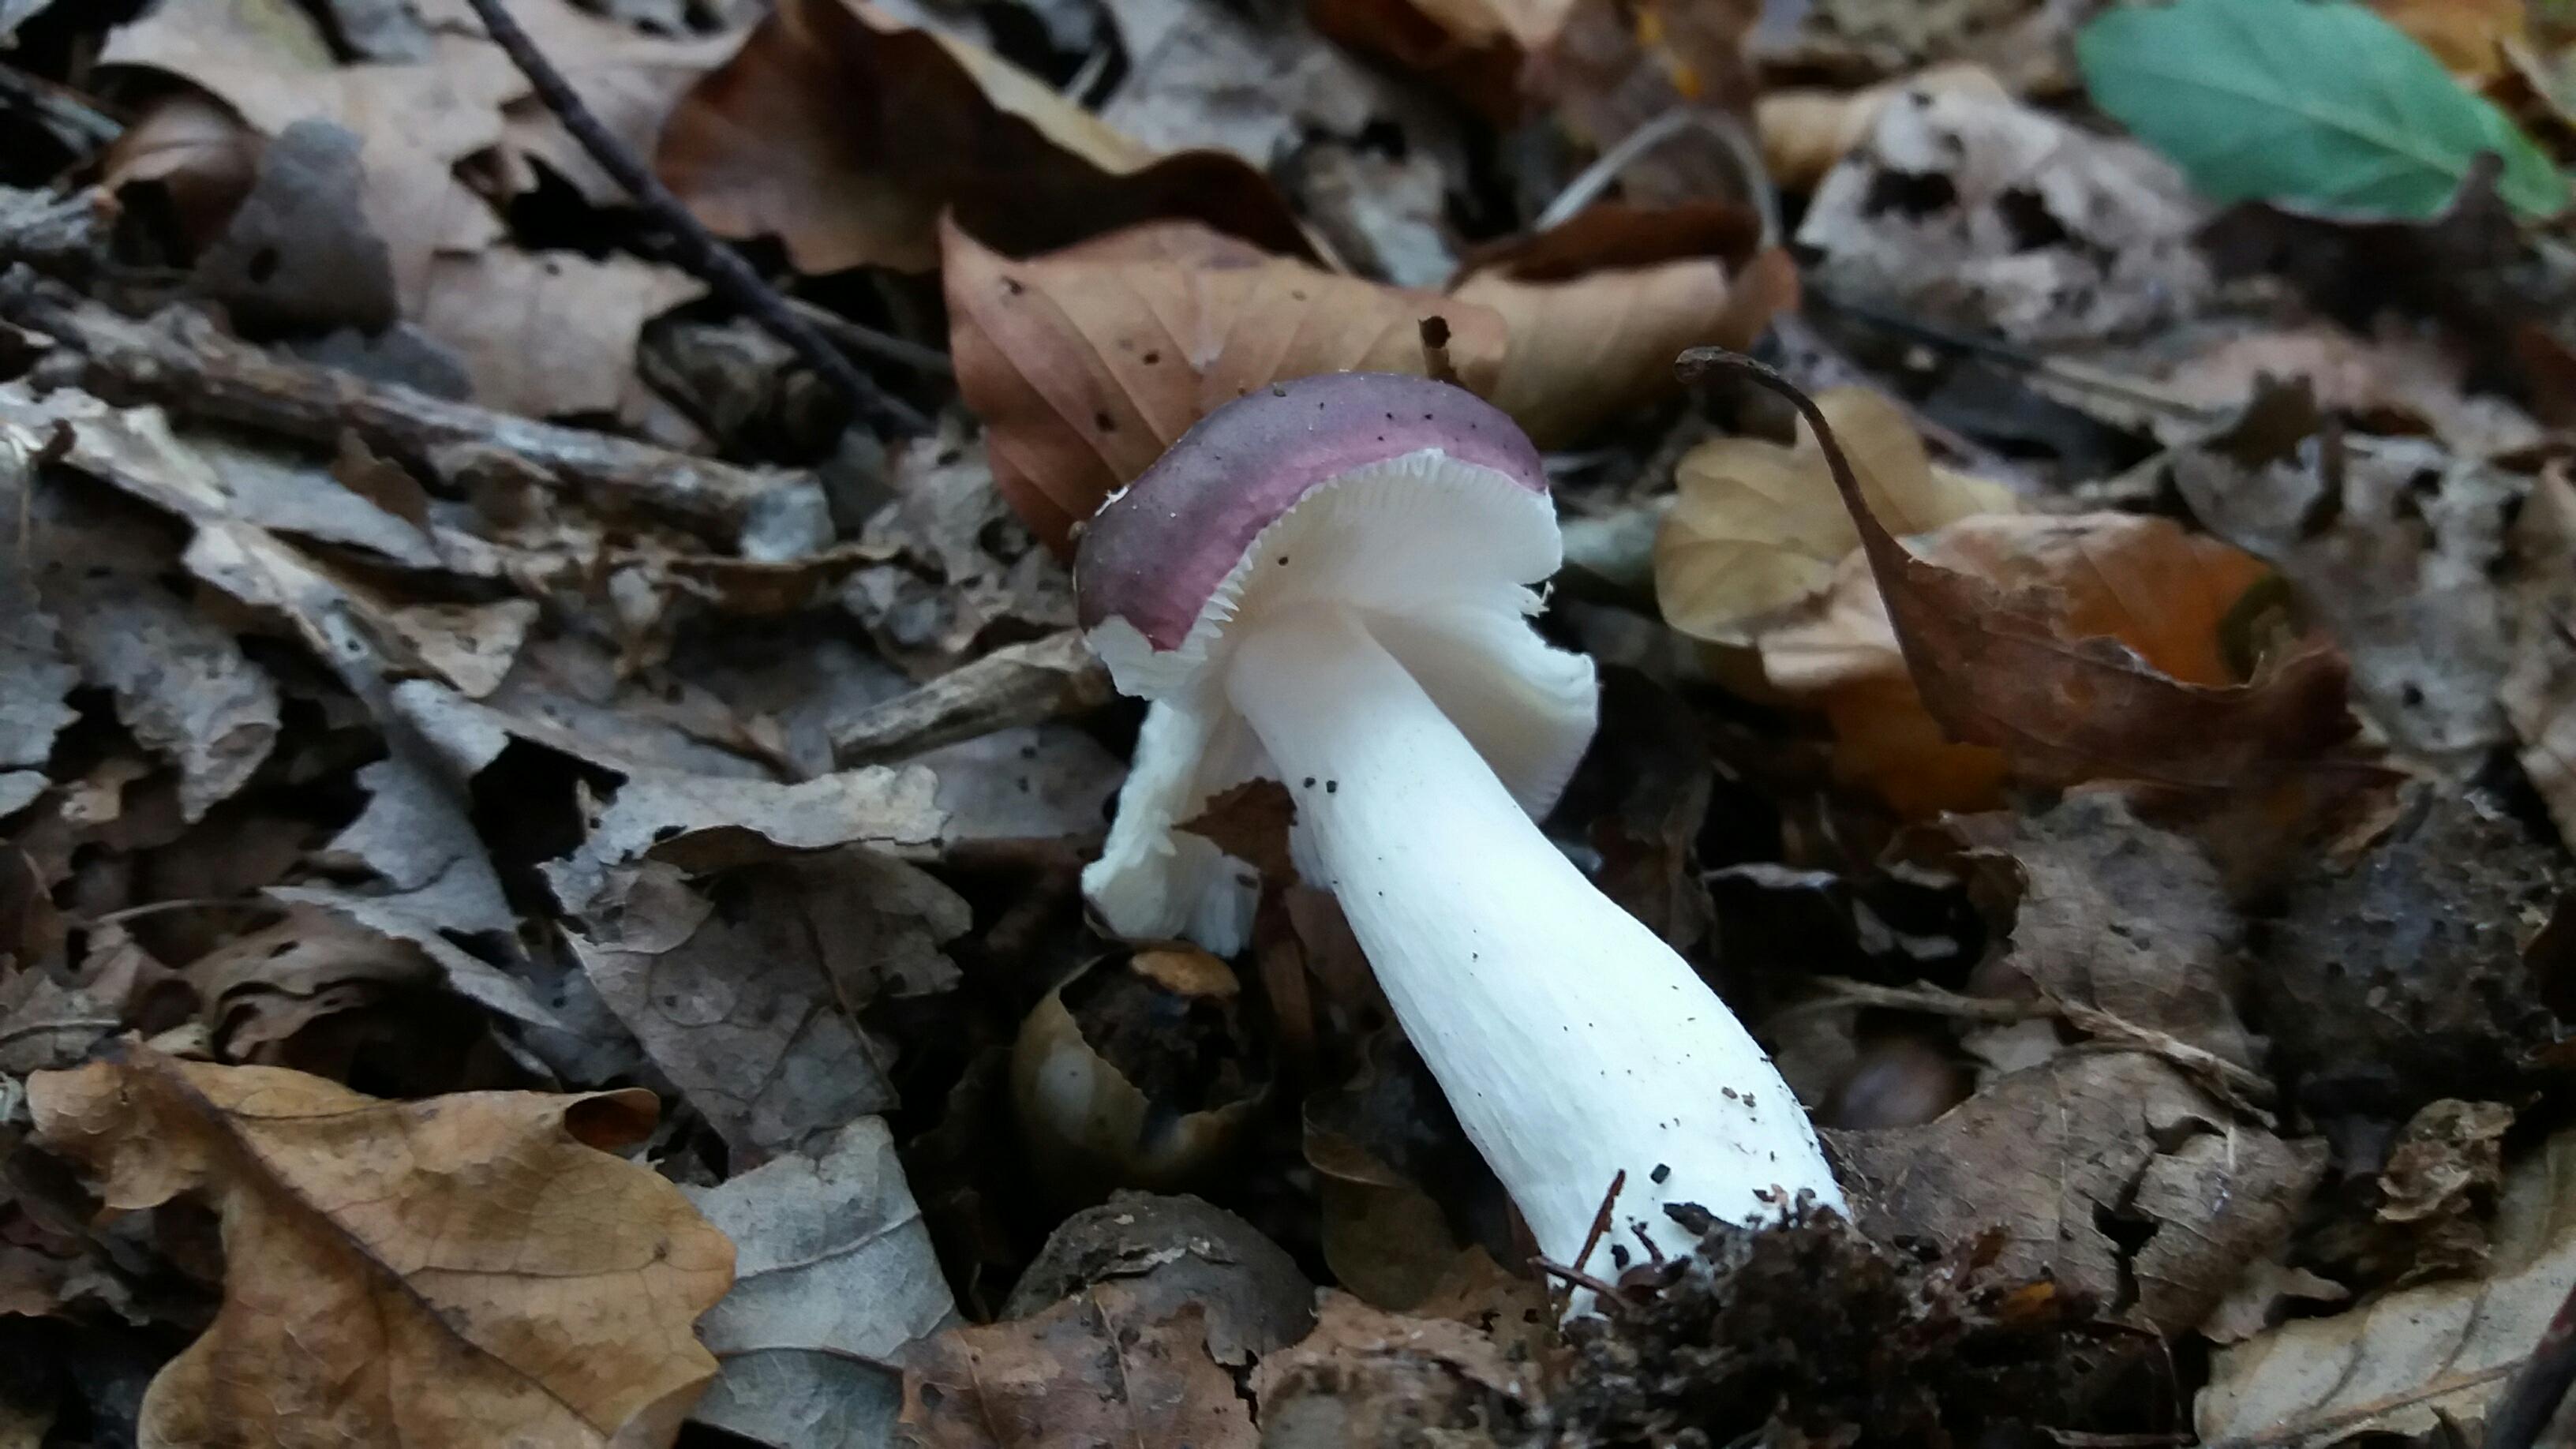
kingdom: Fungi
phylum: Basidiomycota
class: Agaricomycetes
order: Russulales
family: Russulaceae
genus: Russula
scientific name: Russula fragilis
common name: Fragile brittlegill
